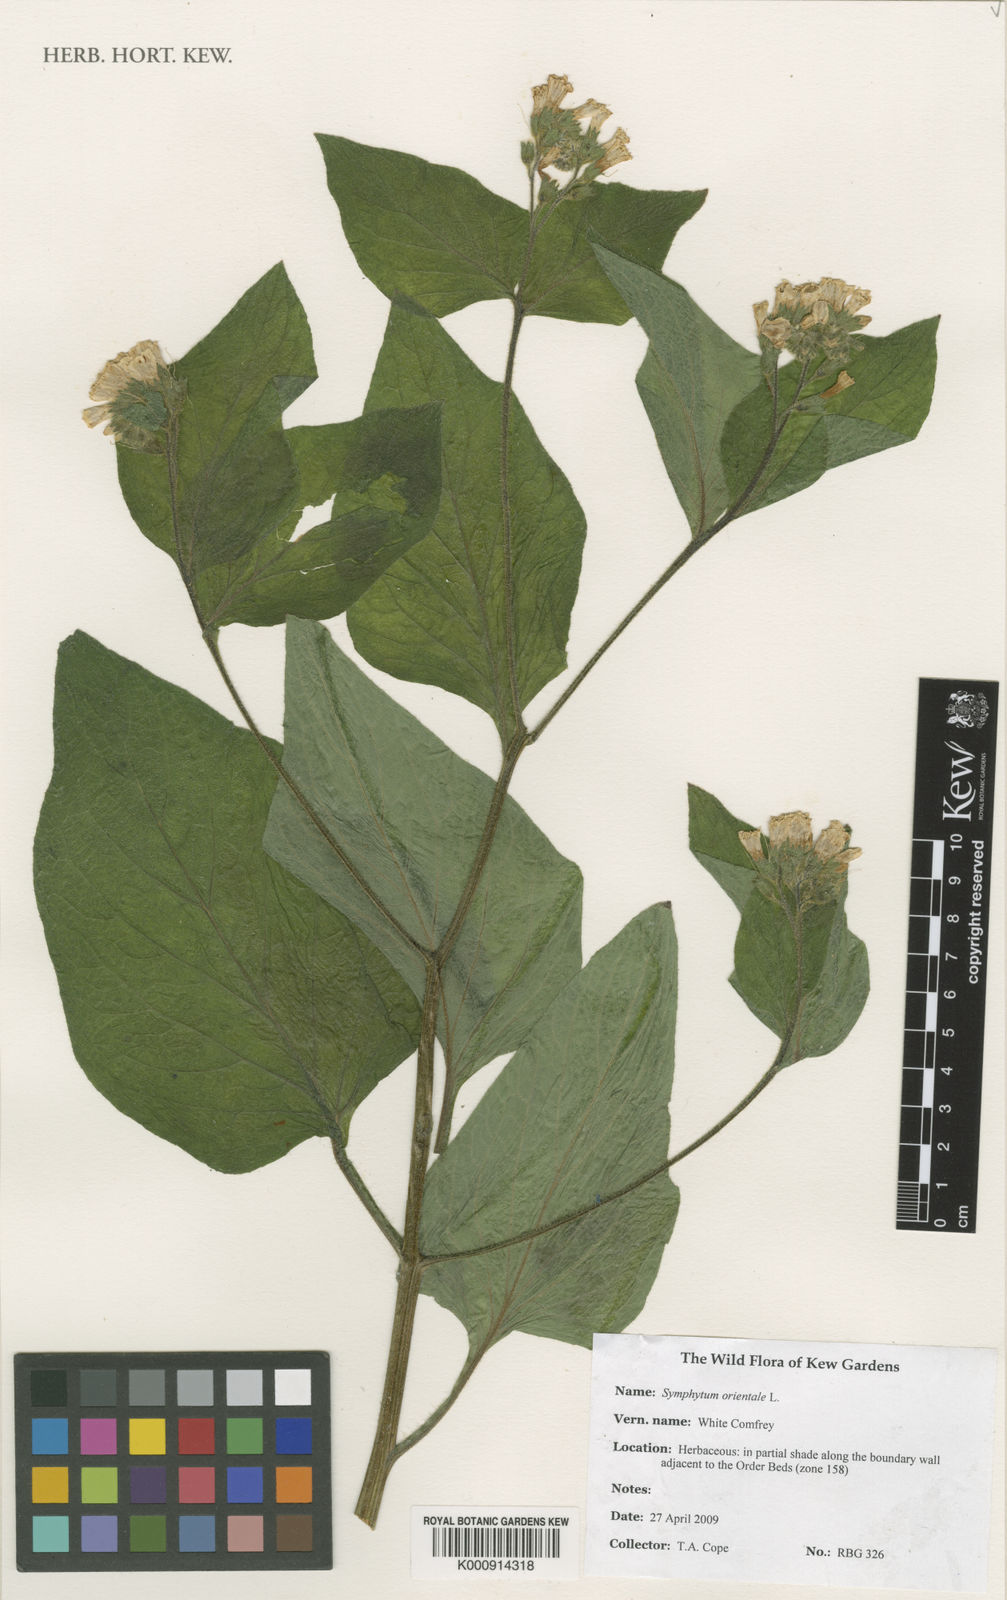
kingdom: Plantae
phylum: Tracheophyta
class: Magnoliopsida
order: Boraginales
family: Boraginaceae
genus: Symphytum
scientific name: Symphytum orientale
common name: White comfrey
